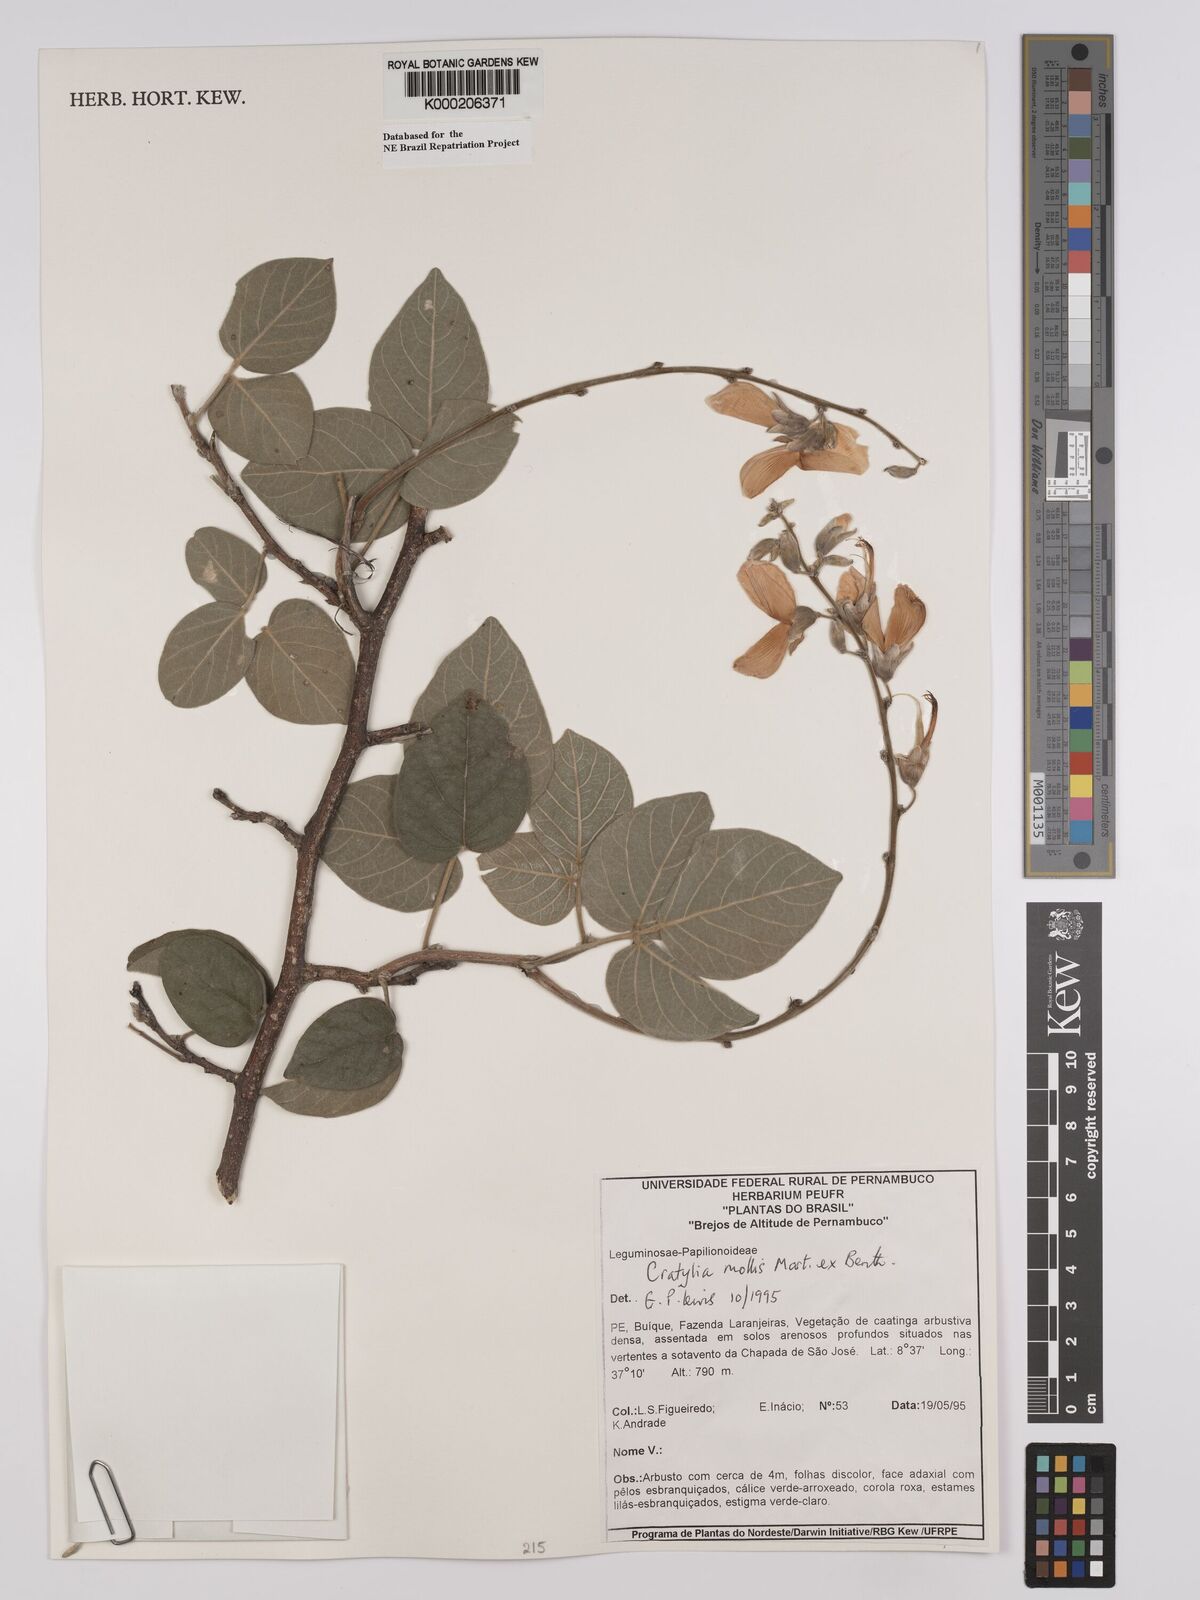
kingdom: Plantae
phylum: Tracheophyta
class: Magnoliopsida
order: Fabales
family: Fabaceae
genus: Cratylia
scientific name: Cratylia mollis
